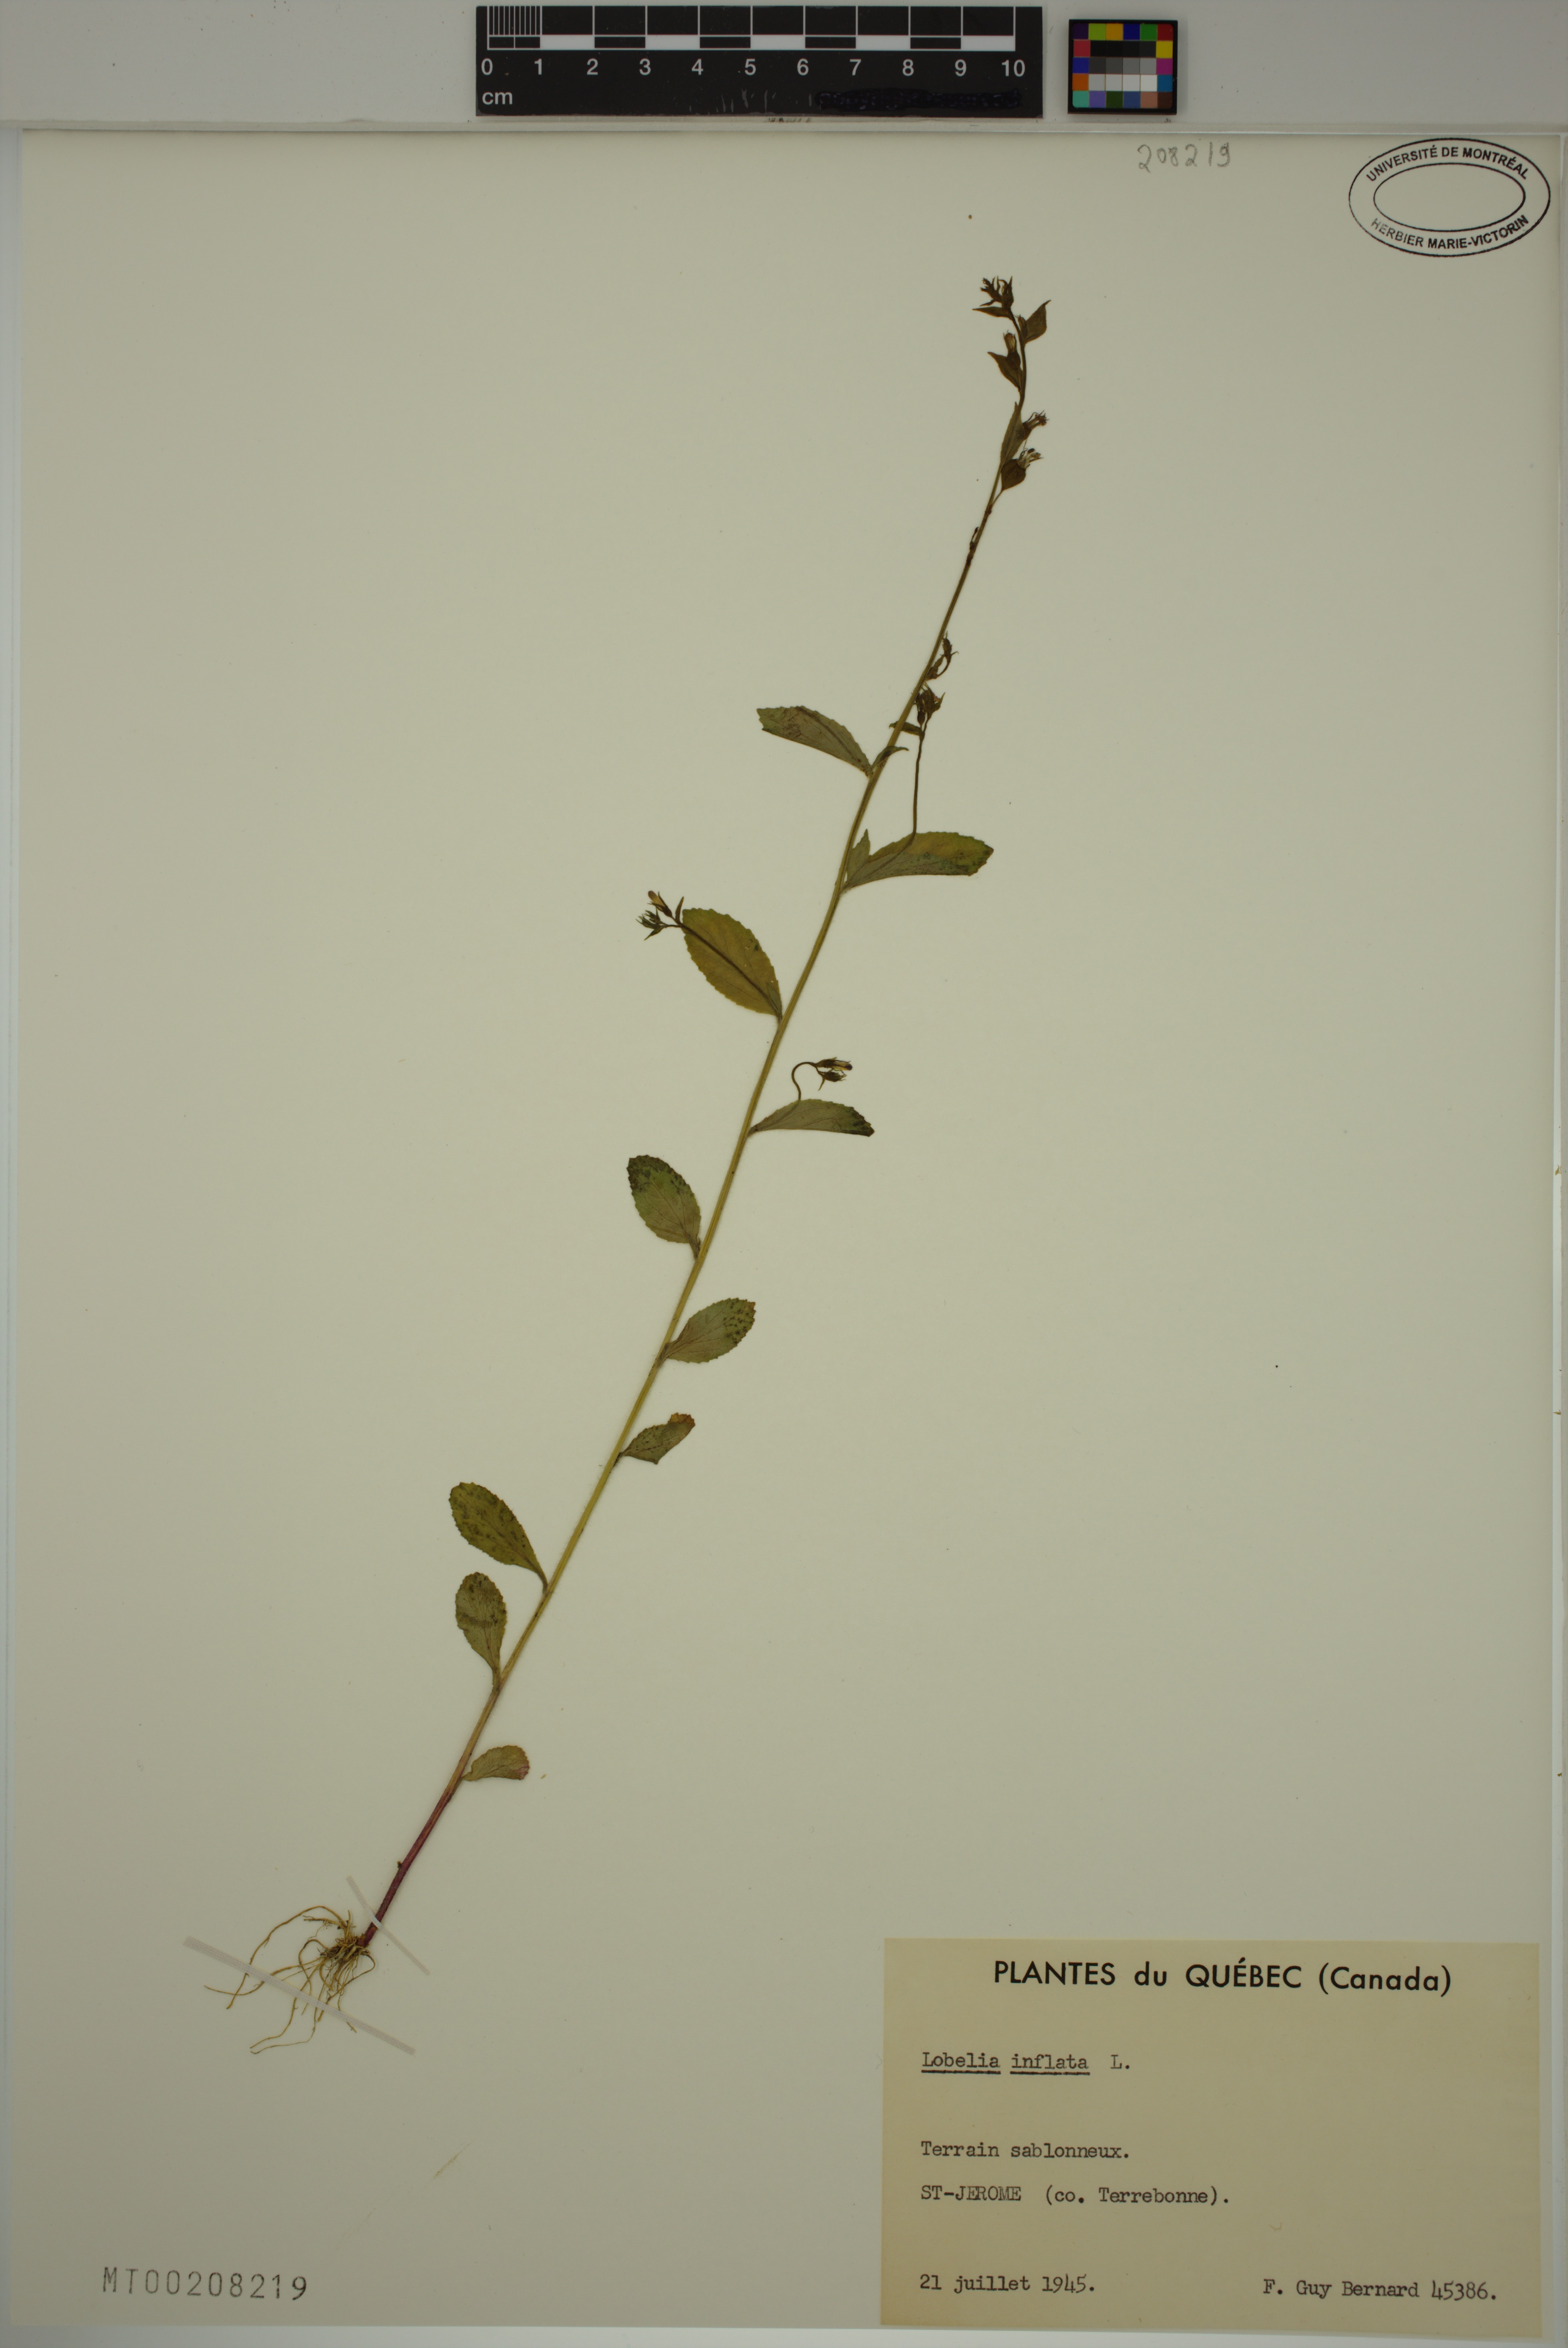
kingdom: Plantae
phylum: Tracheophyta
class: Magnoliopsida
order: Asterales
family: Campanulaceae
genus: Lobelia
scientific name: Lobelia inflata
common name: Indian tobacco
